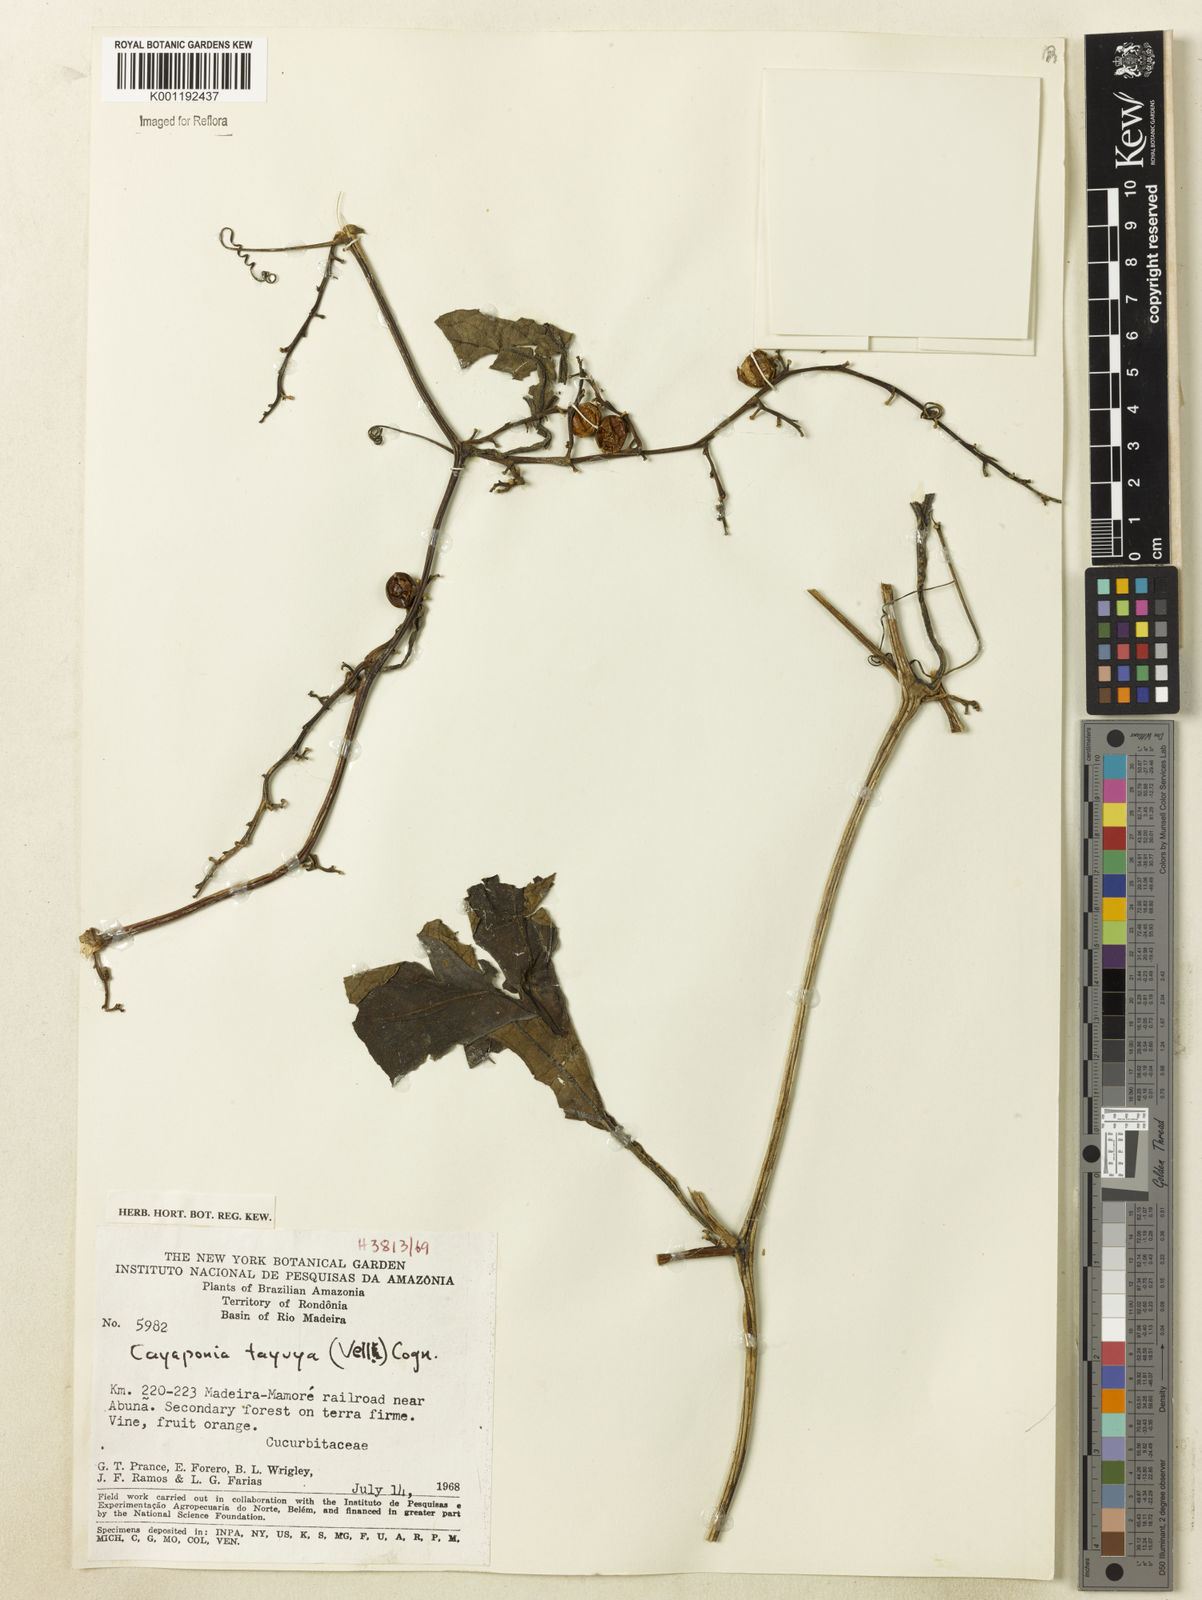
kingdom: Plantae
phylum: Tracheophyta
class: Magnoliopsida
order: Cucurbitales
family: Cucurbitaceae
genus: Cayaponia
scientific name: Cayaponia tayuya
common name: Tayuya
